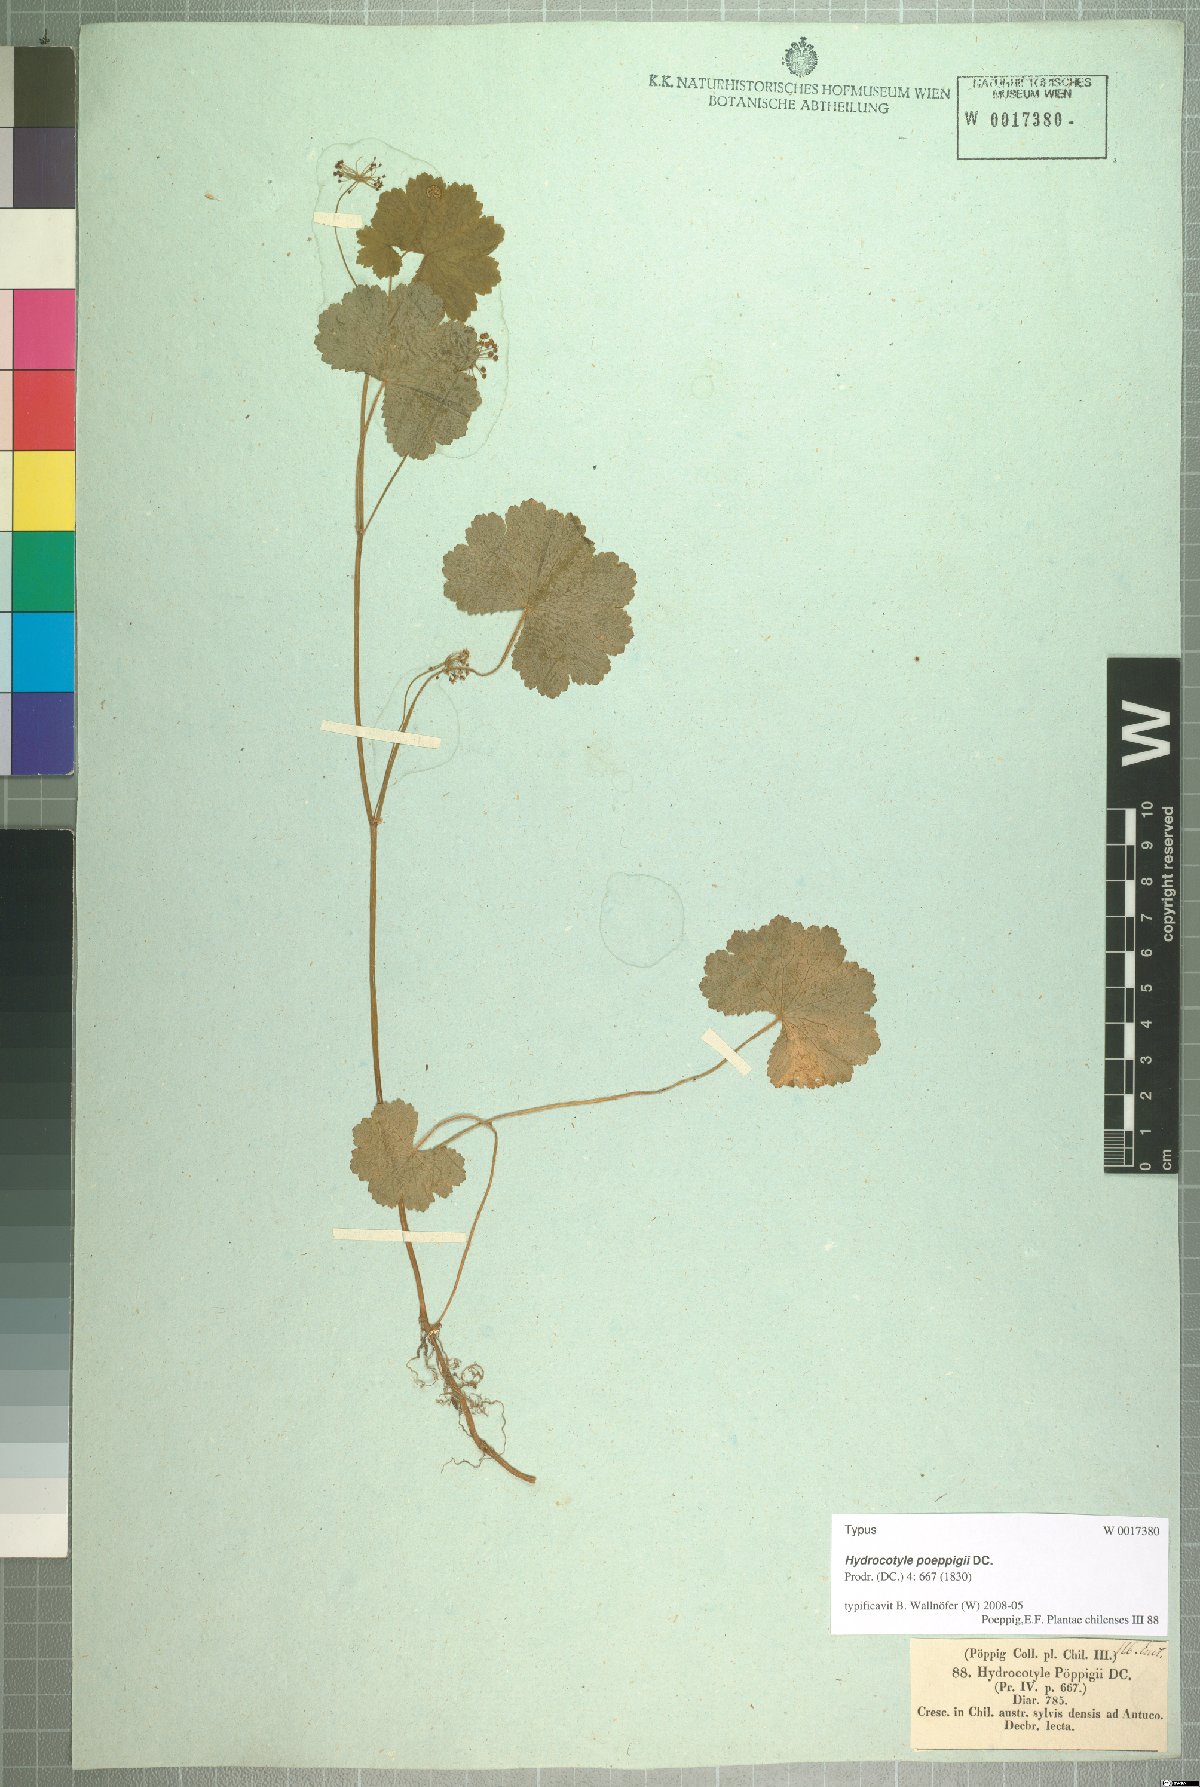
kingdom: Plantae
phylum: Tracheophyta
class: Magnoliopsida
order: Apiales
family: Araliaceae
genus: Hydrocotyle
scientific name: Hydrocotyle poeppigii
